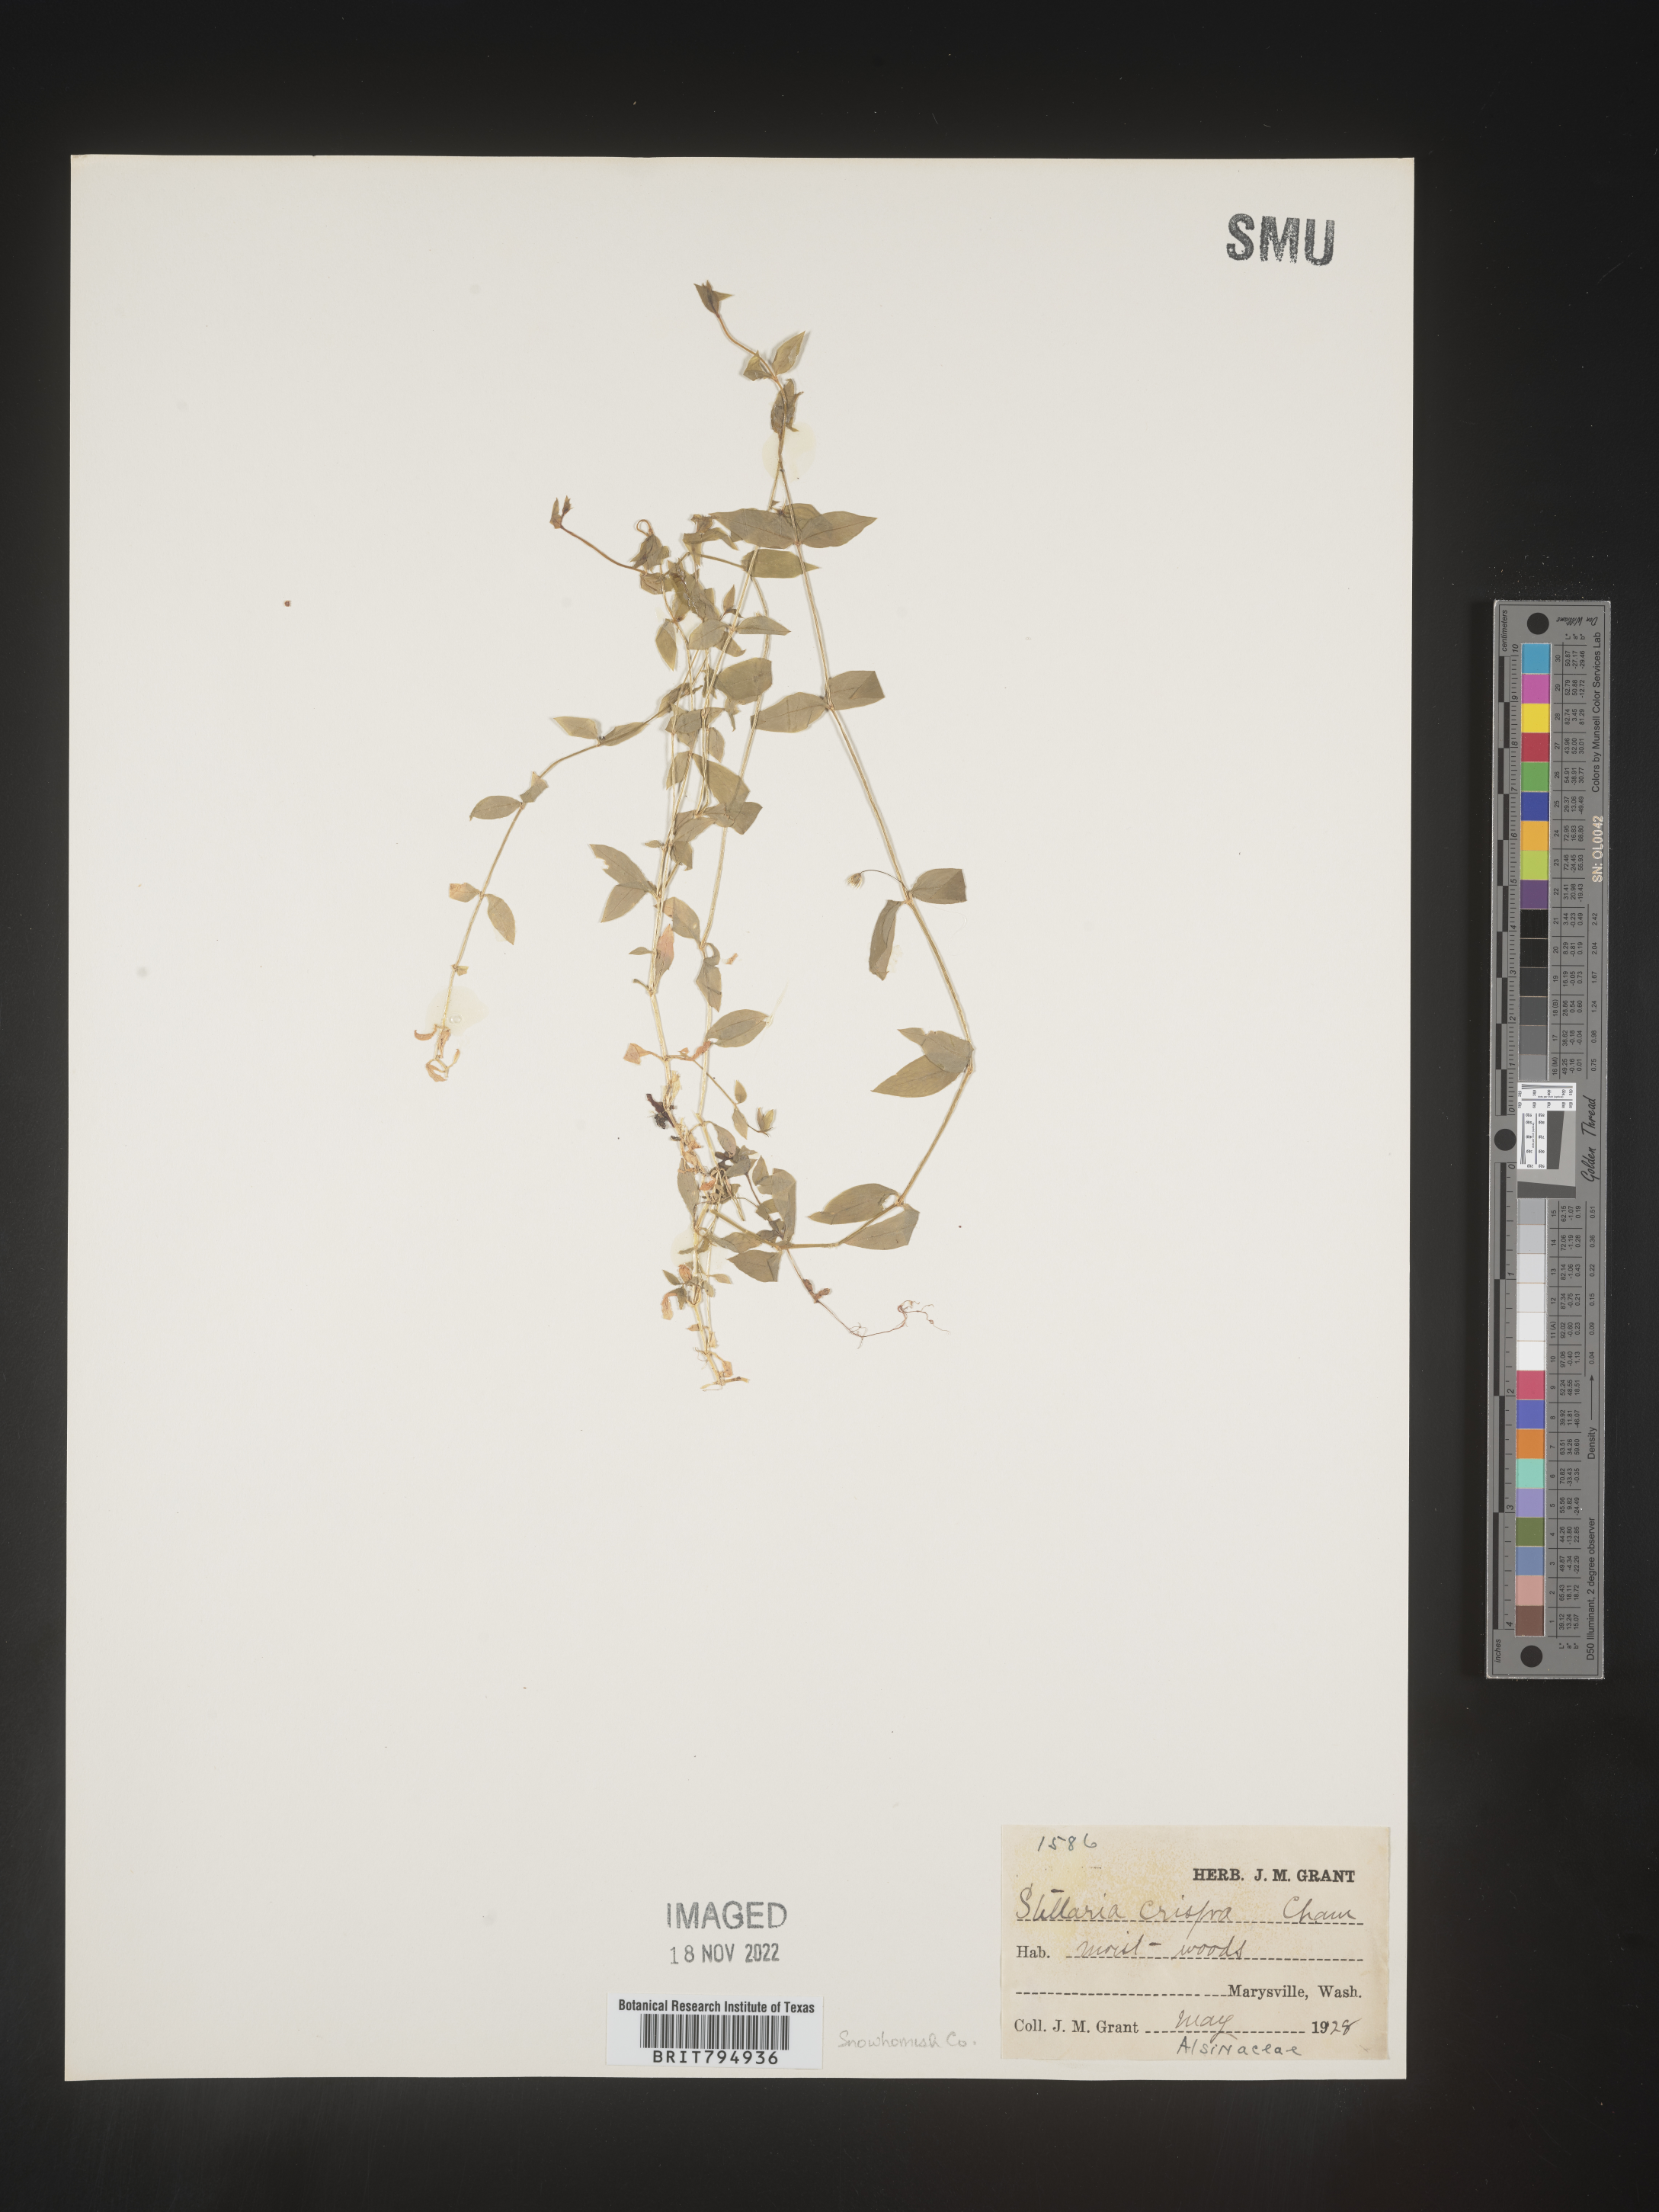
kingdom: Plantae
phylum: Tracheophyta
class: Magnoliopsida
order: Caryophyllales
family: Caryophyllaceae
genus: Stellaria
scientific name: Stellaria crispa
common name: Crimped stitchwort
